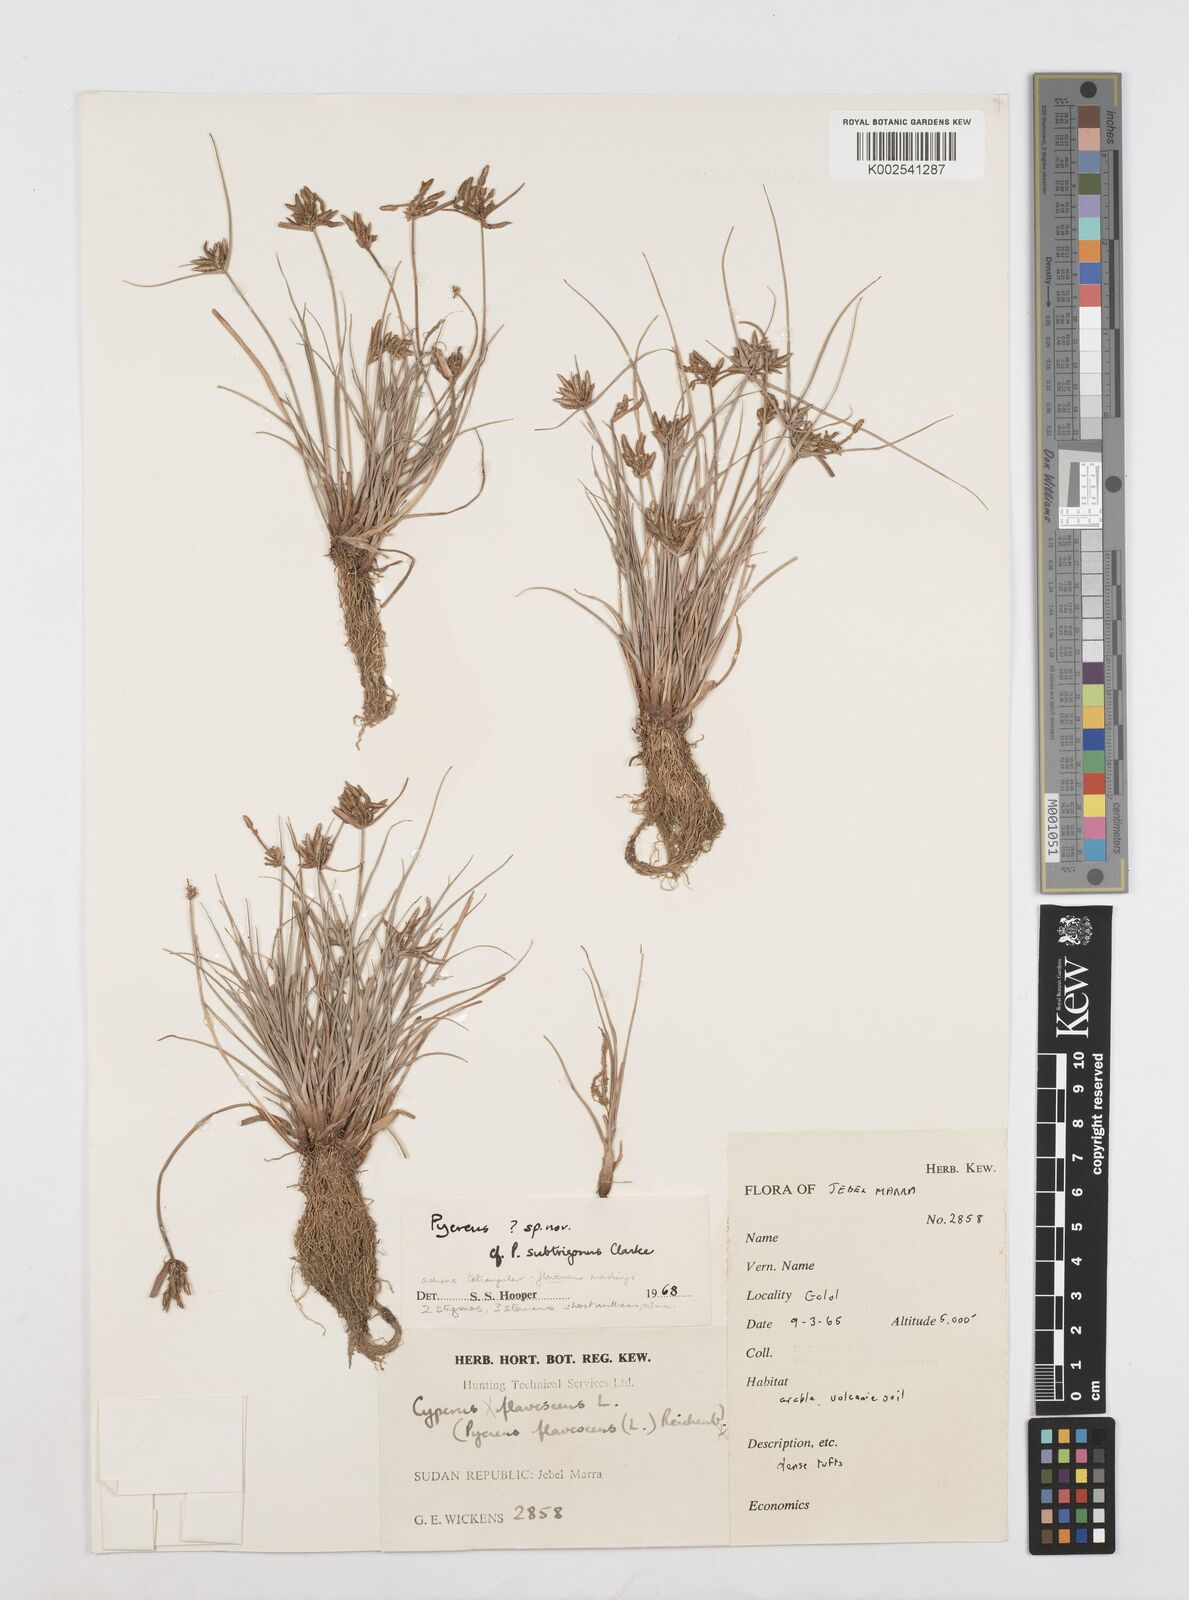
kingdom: Plantae
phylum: Tracheophyta
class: Liliopsida
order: Poales
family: Cyperaceae
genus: Cyperus
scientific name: Cyperus
